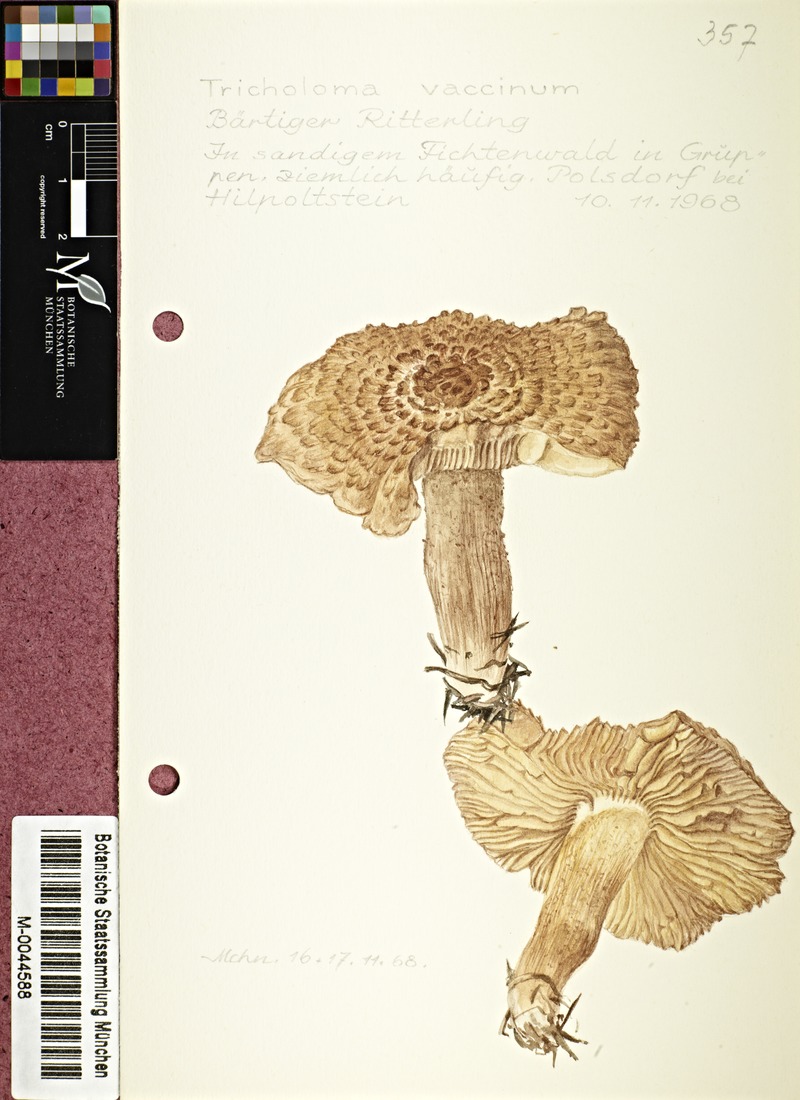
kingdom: Fungi
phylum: Basidiomycota
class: Agaricomycetes
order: Agaricales
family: Tricholomataceae
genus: Tricholoma
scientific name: Tricholoma vaccinum
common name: Scaly knight
